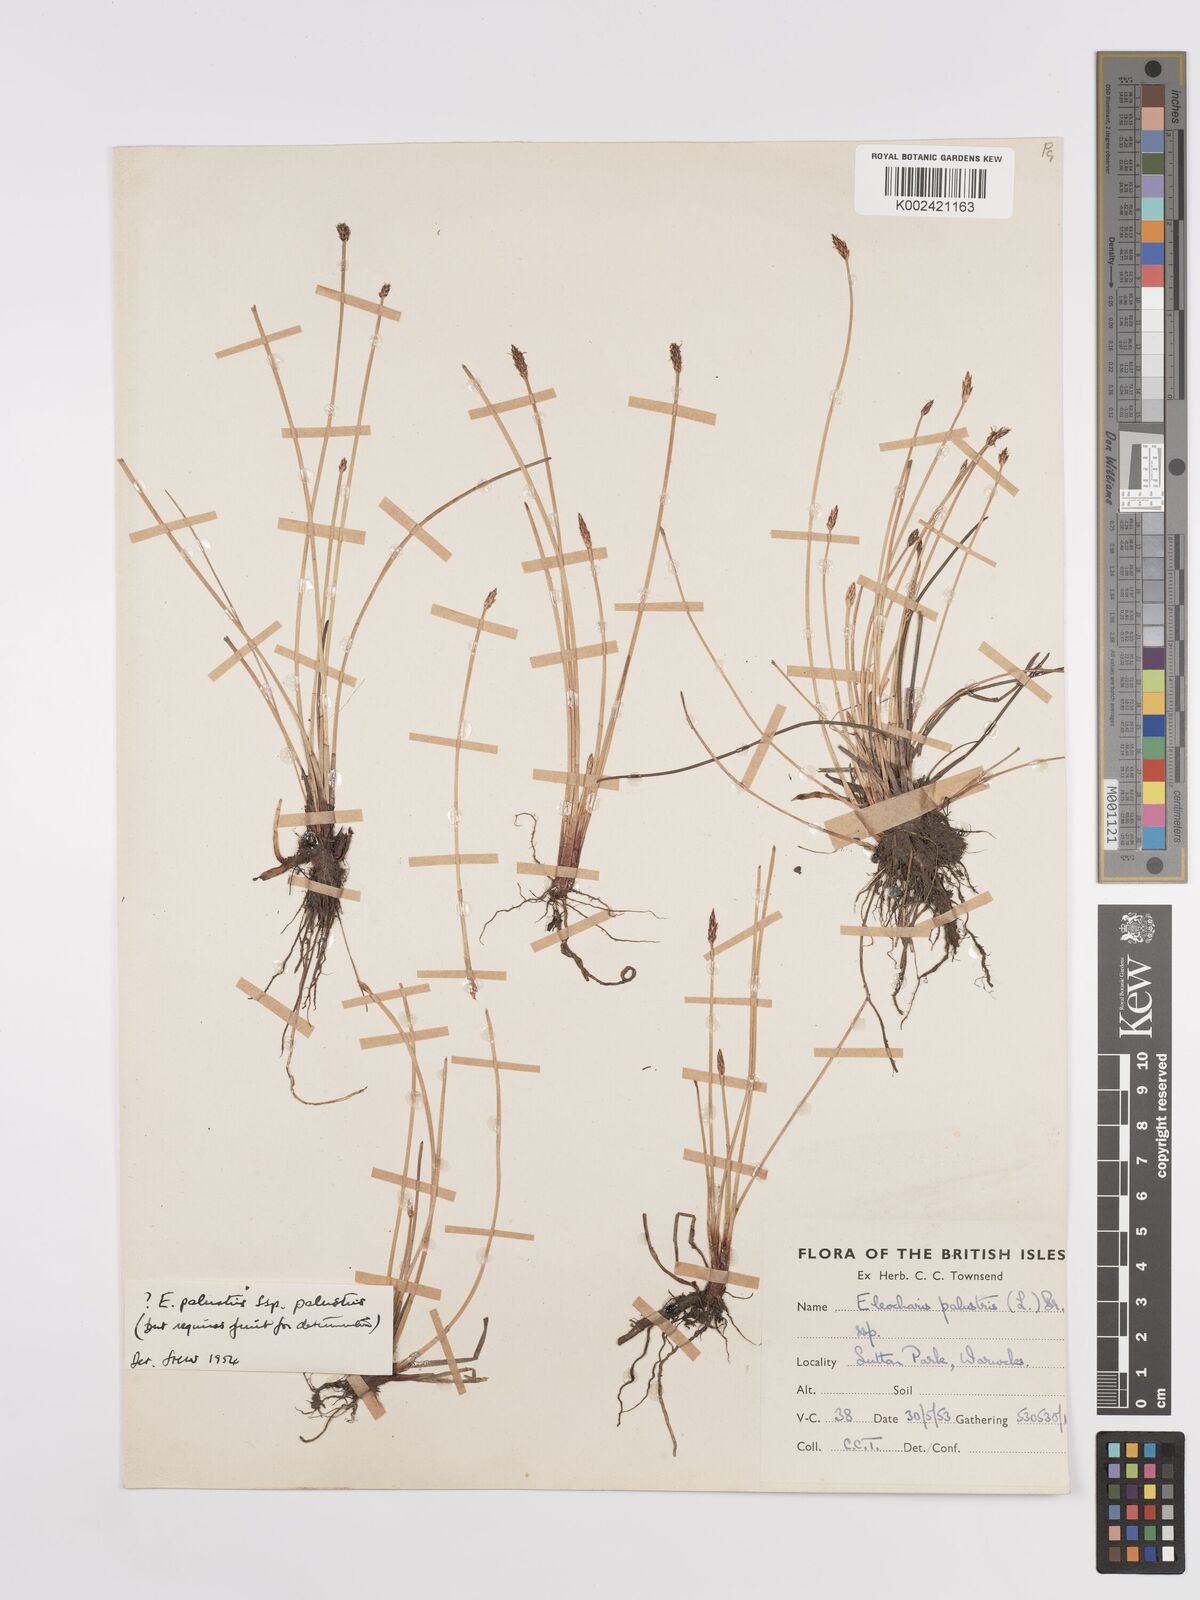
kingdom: Plantae
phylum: Tracheophyta
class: Liliopsida
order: Poales
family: Cyperaceae
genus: Eleocharis
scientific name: Eleocharis palustris
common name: Common spike-rush
